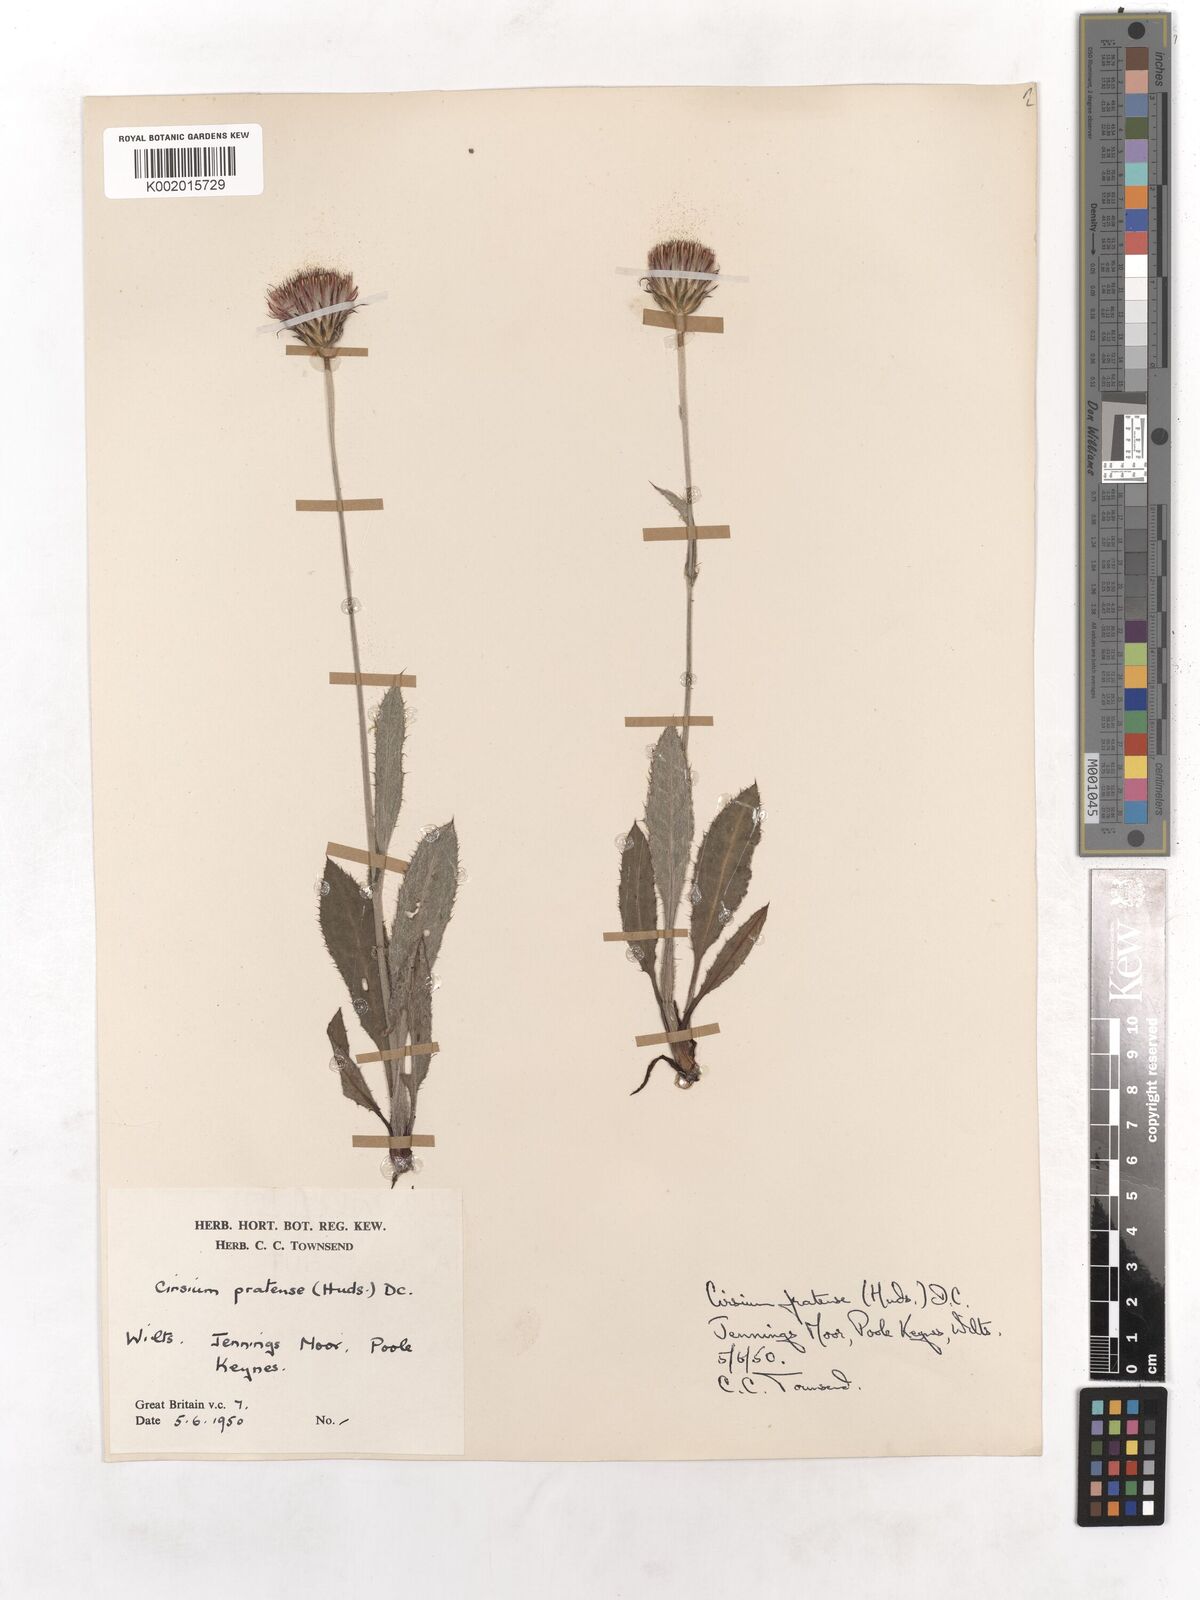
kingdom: Plantae
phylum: Tracheophyta
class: Magnoliopsida
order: Asterales
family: Asteraceae
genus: Cirsium
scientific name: Cirsium dissectum
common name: Meadow thistle
